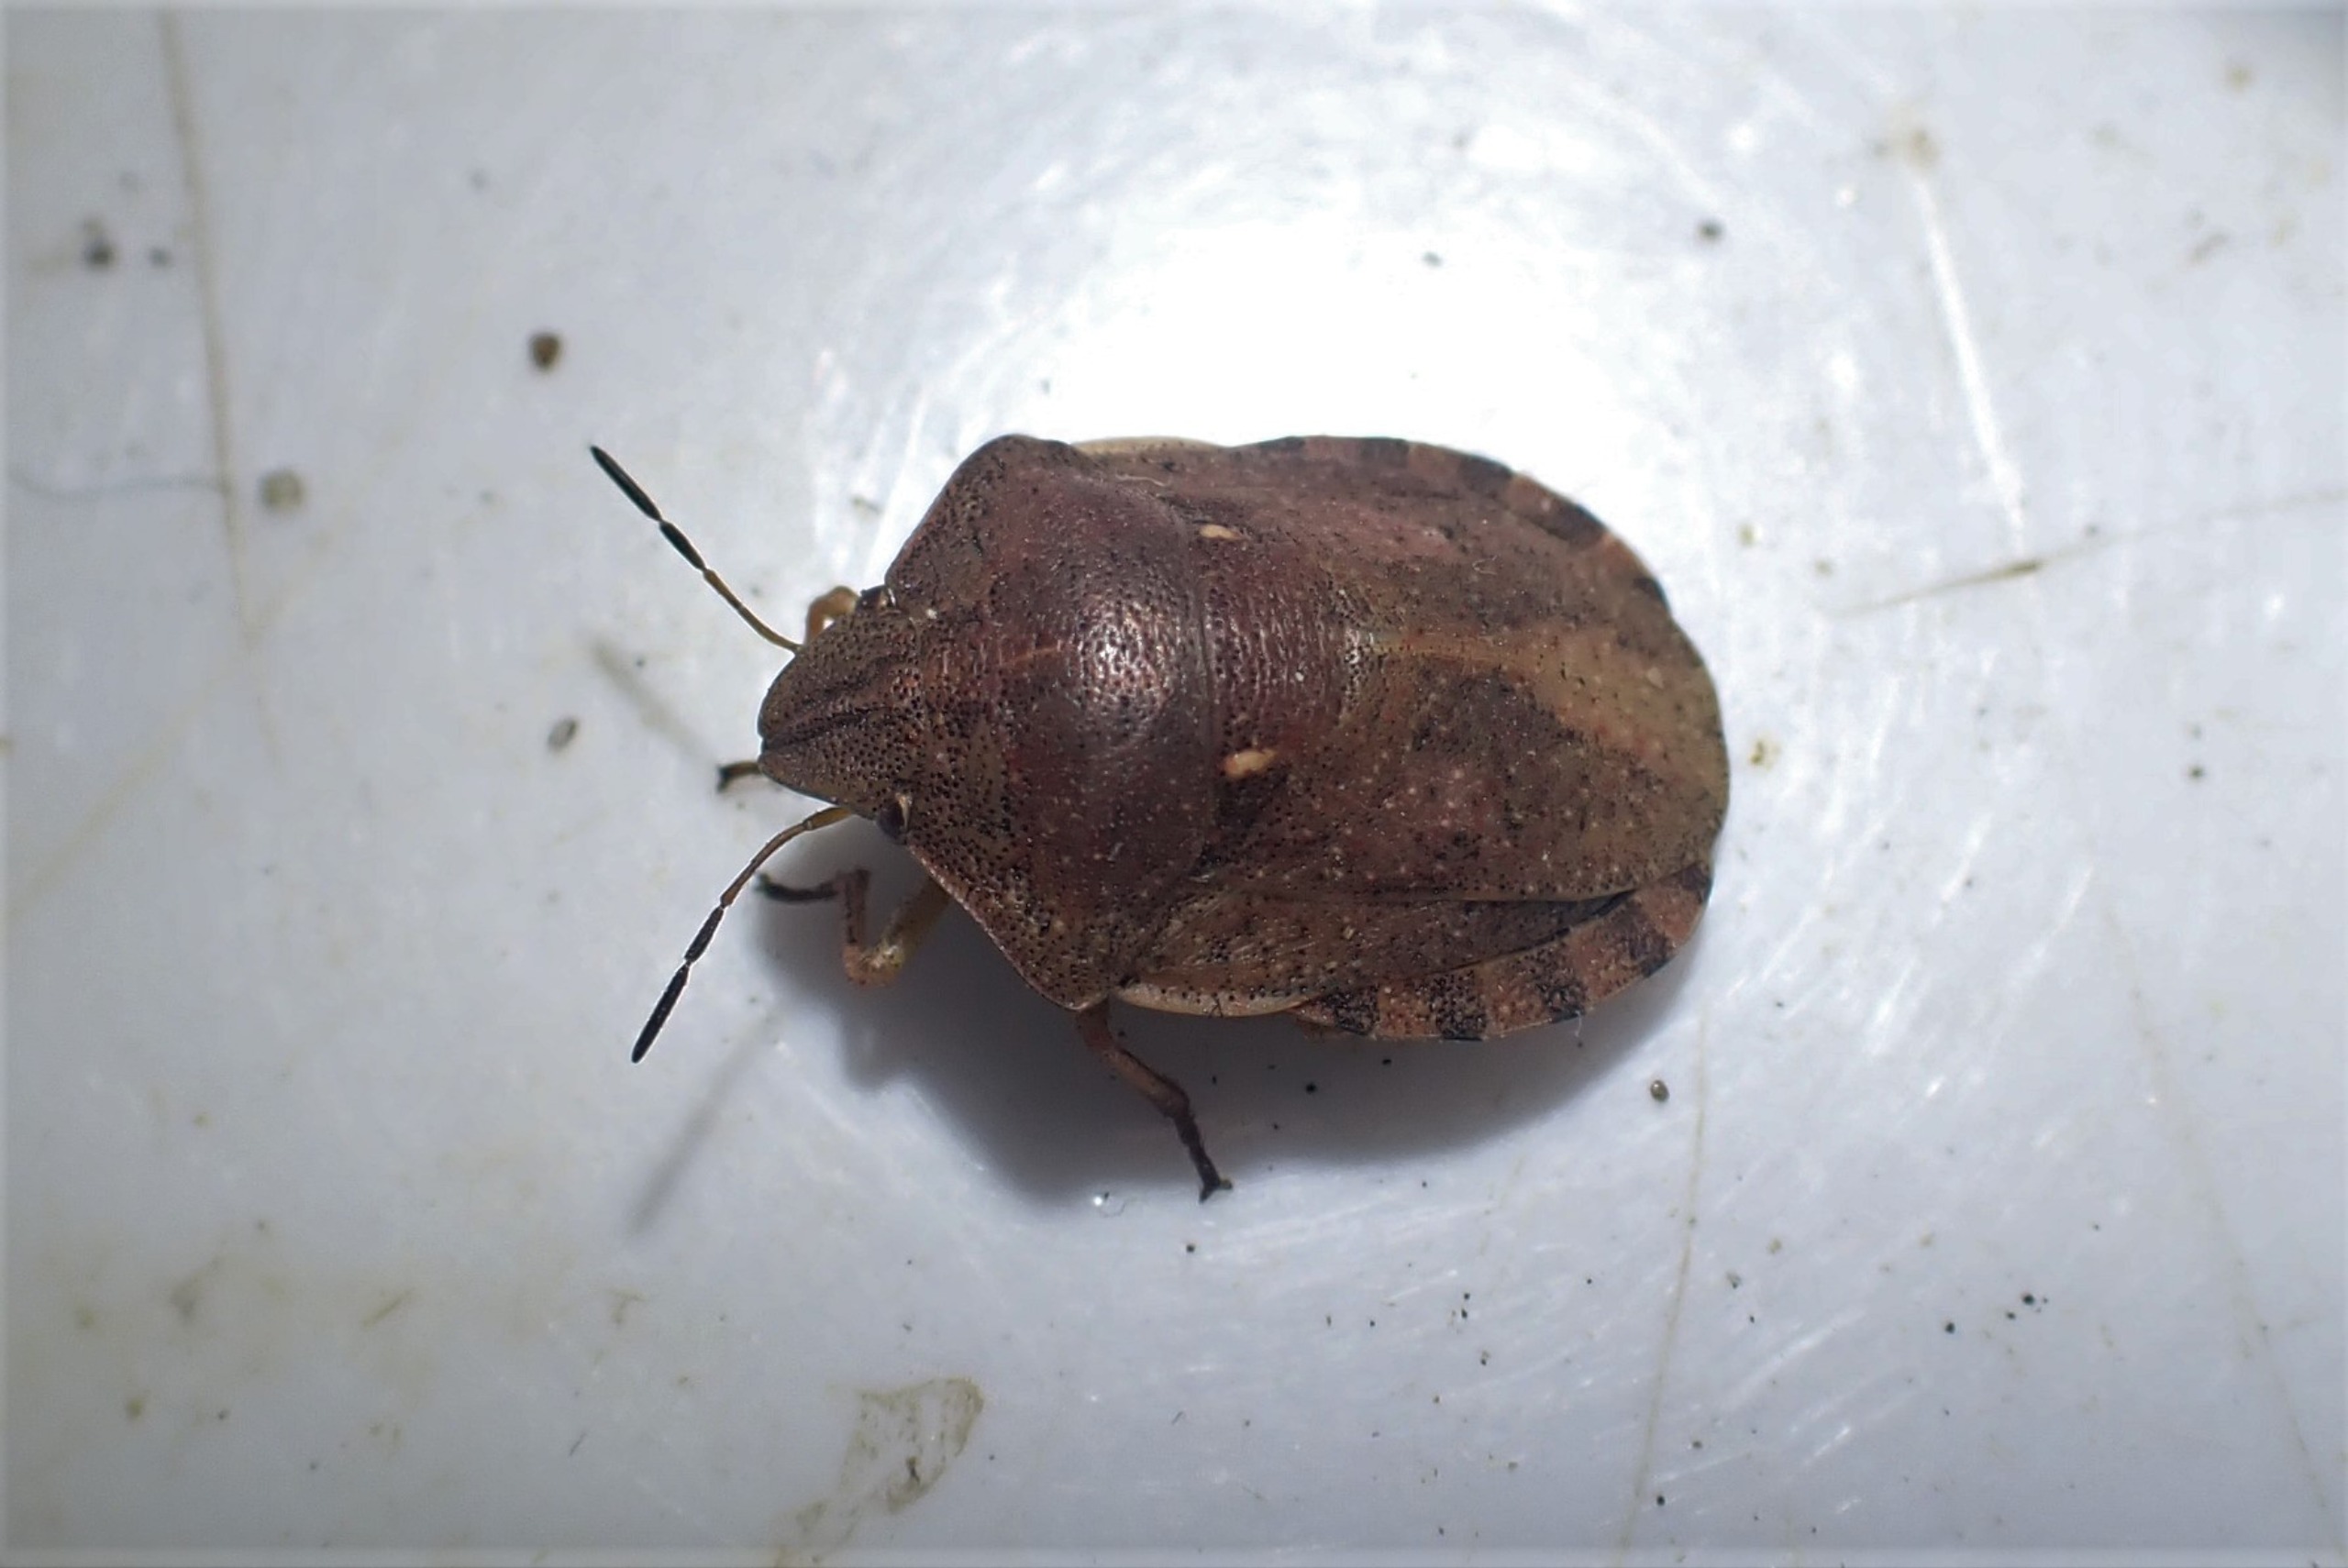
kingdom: Animalia
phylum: Arthropoda
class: Insecta
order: Hemiptera
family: Scutelleridae
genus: Eurygaster
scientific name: Eurygaster testudinaria
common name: Starskjoldtæge
